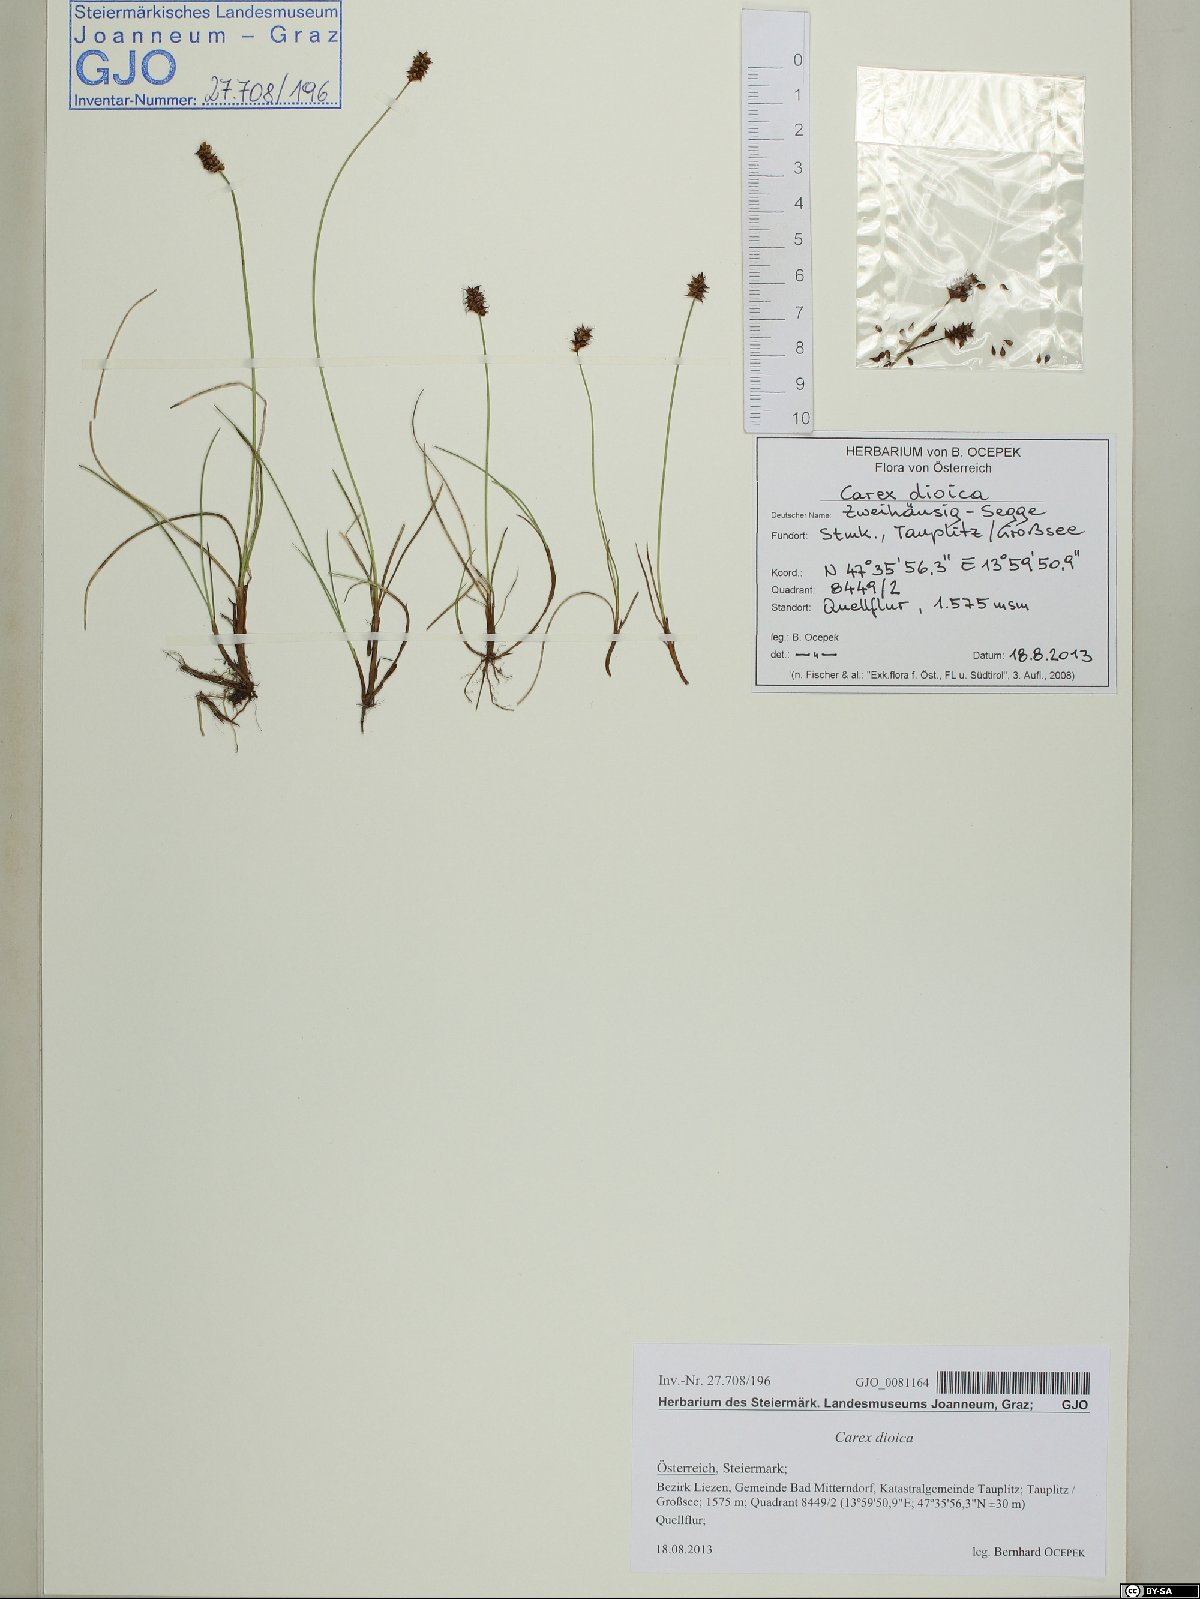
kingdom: Plantae
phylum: Tracheophyta
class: Liliopsida
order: Poales
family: Cyperaceae
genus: Carex
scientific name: Carex dioica
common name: Dioecious sedge
